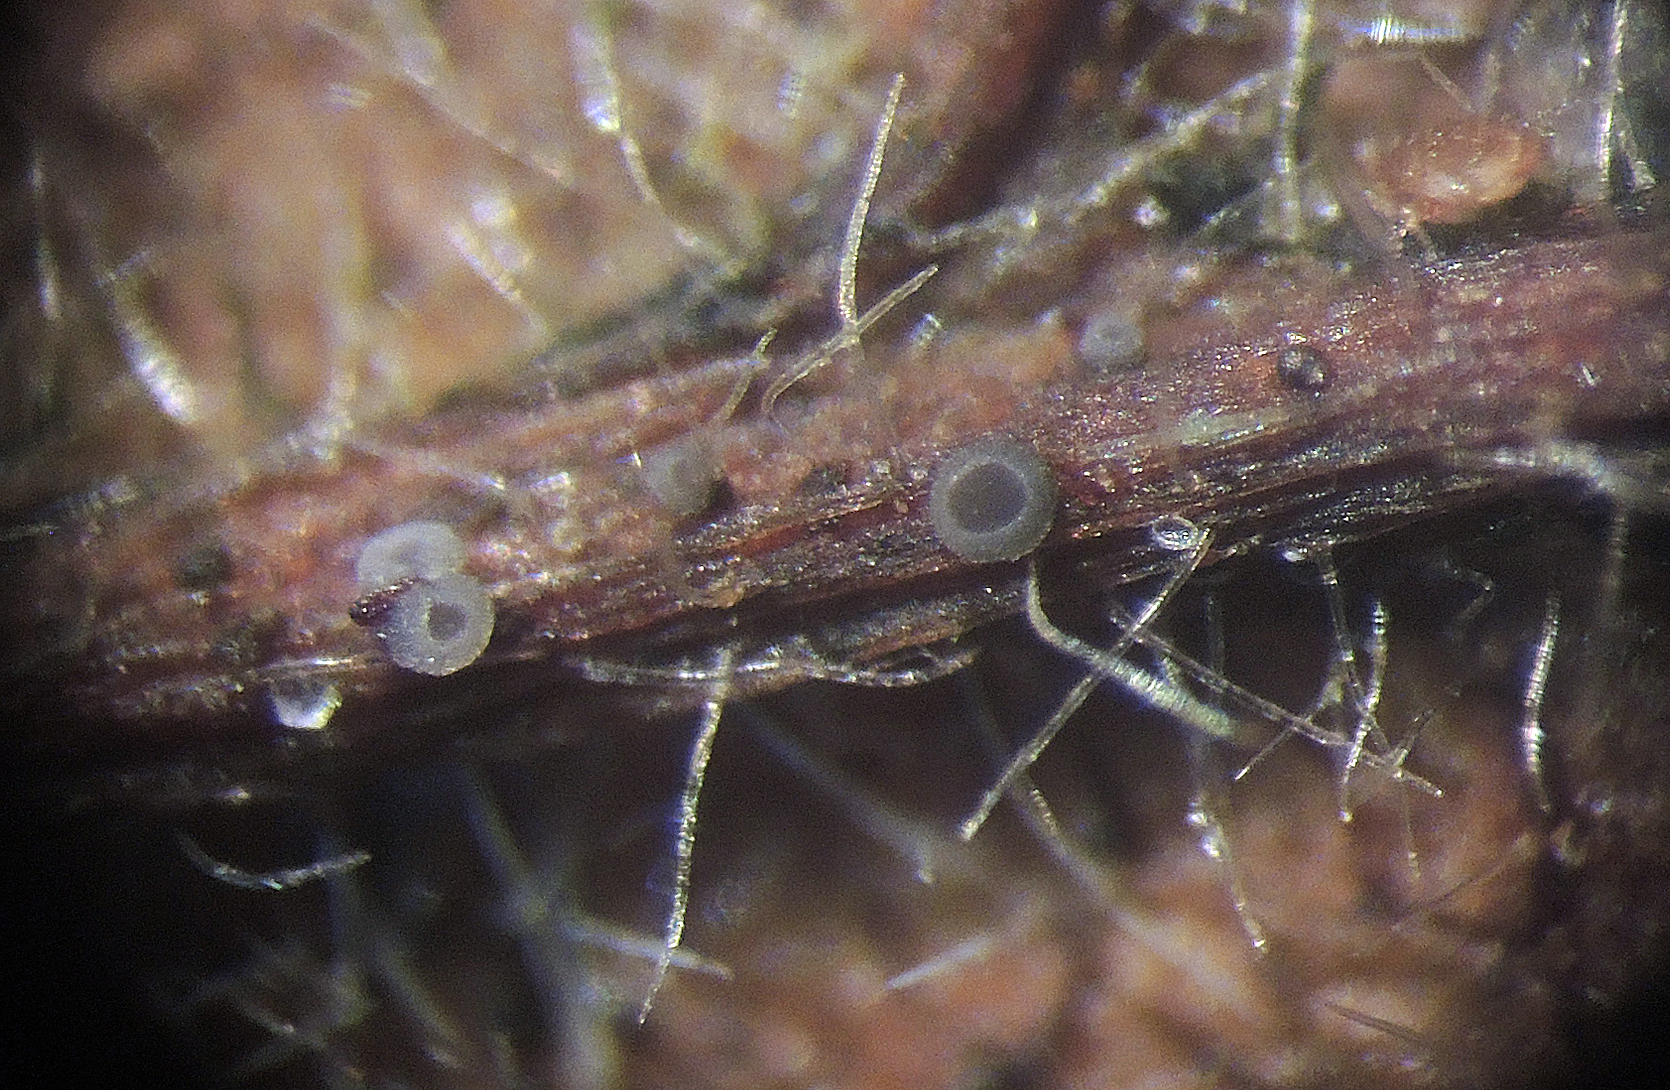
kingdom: Fungi
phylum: Ascomycota
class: Leotiomycetes
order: Helotiales
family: Mollisiaceae
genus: Mollisia
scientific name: Mollisia
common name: gråskive
